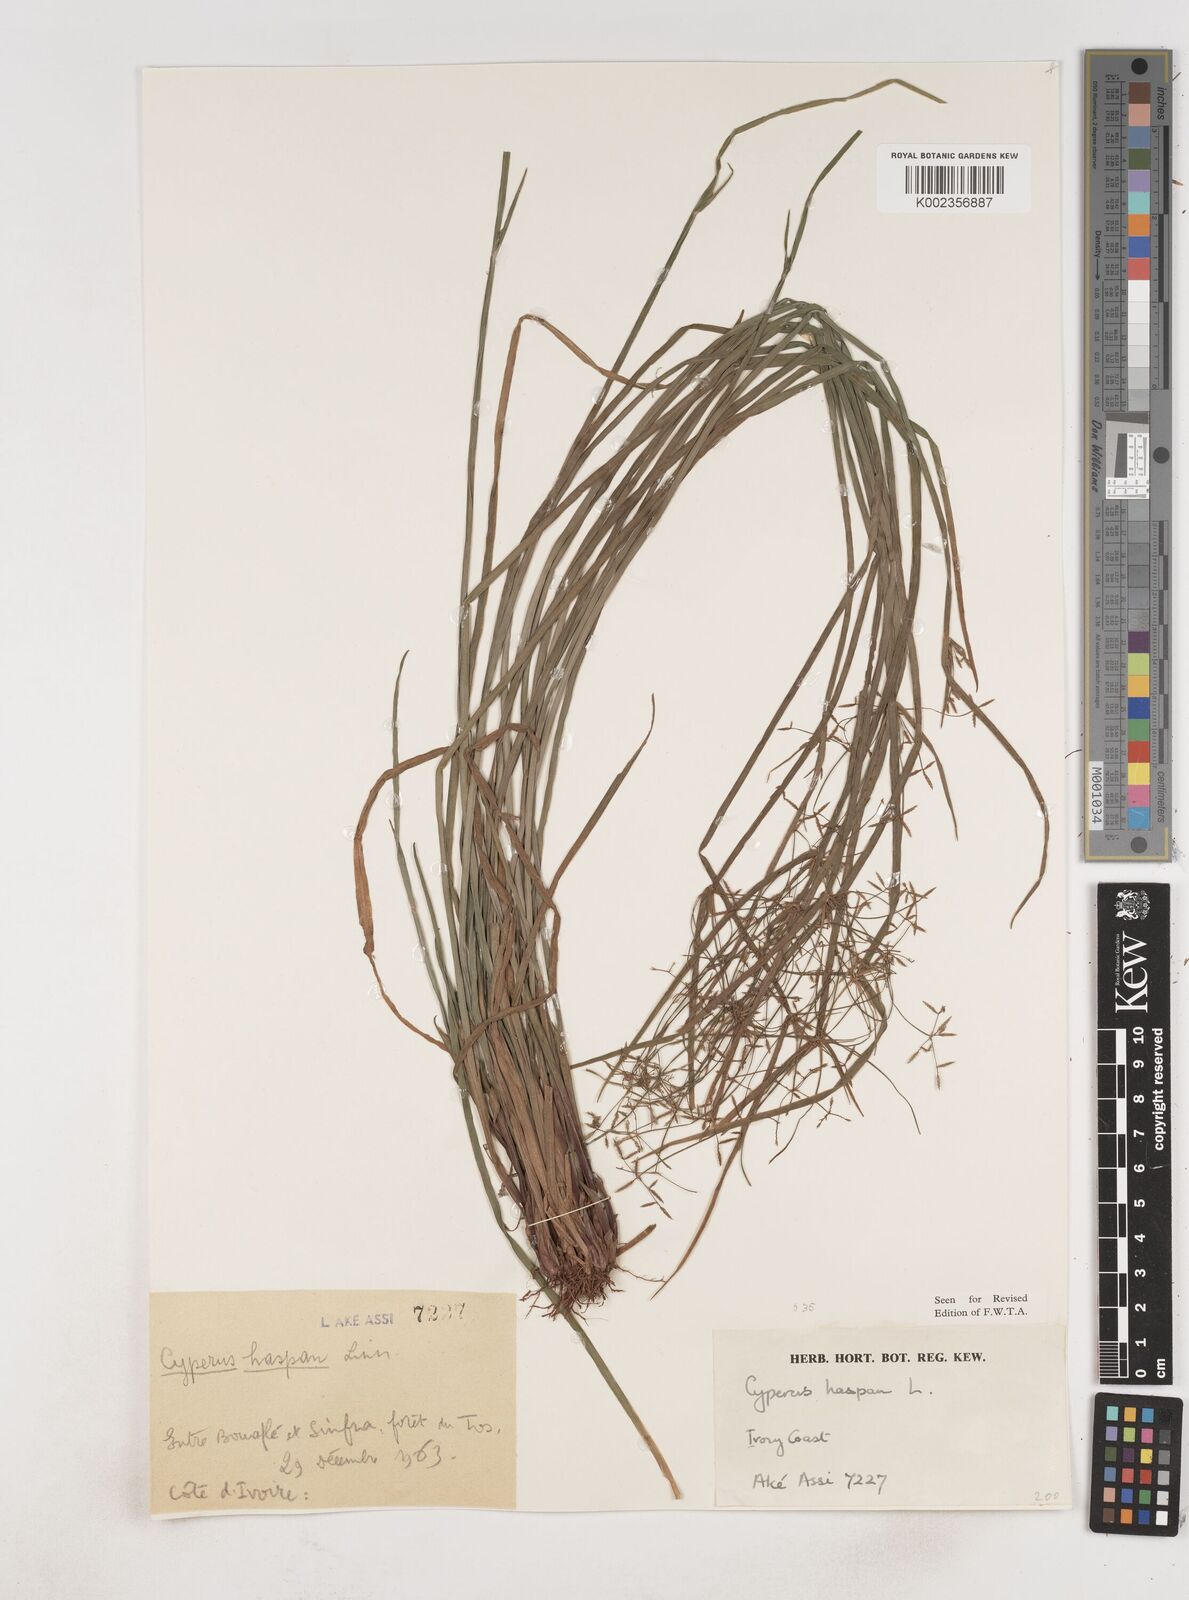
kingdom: Plantae
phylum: Tracheophyta
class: Liliopsida
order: Poales
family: Cyperaceae
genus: Cyperus
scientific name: Cyperus haspan
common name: Haspan flatsedge
